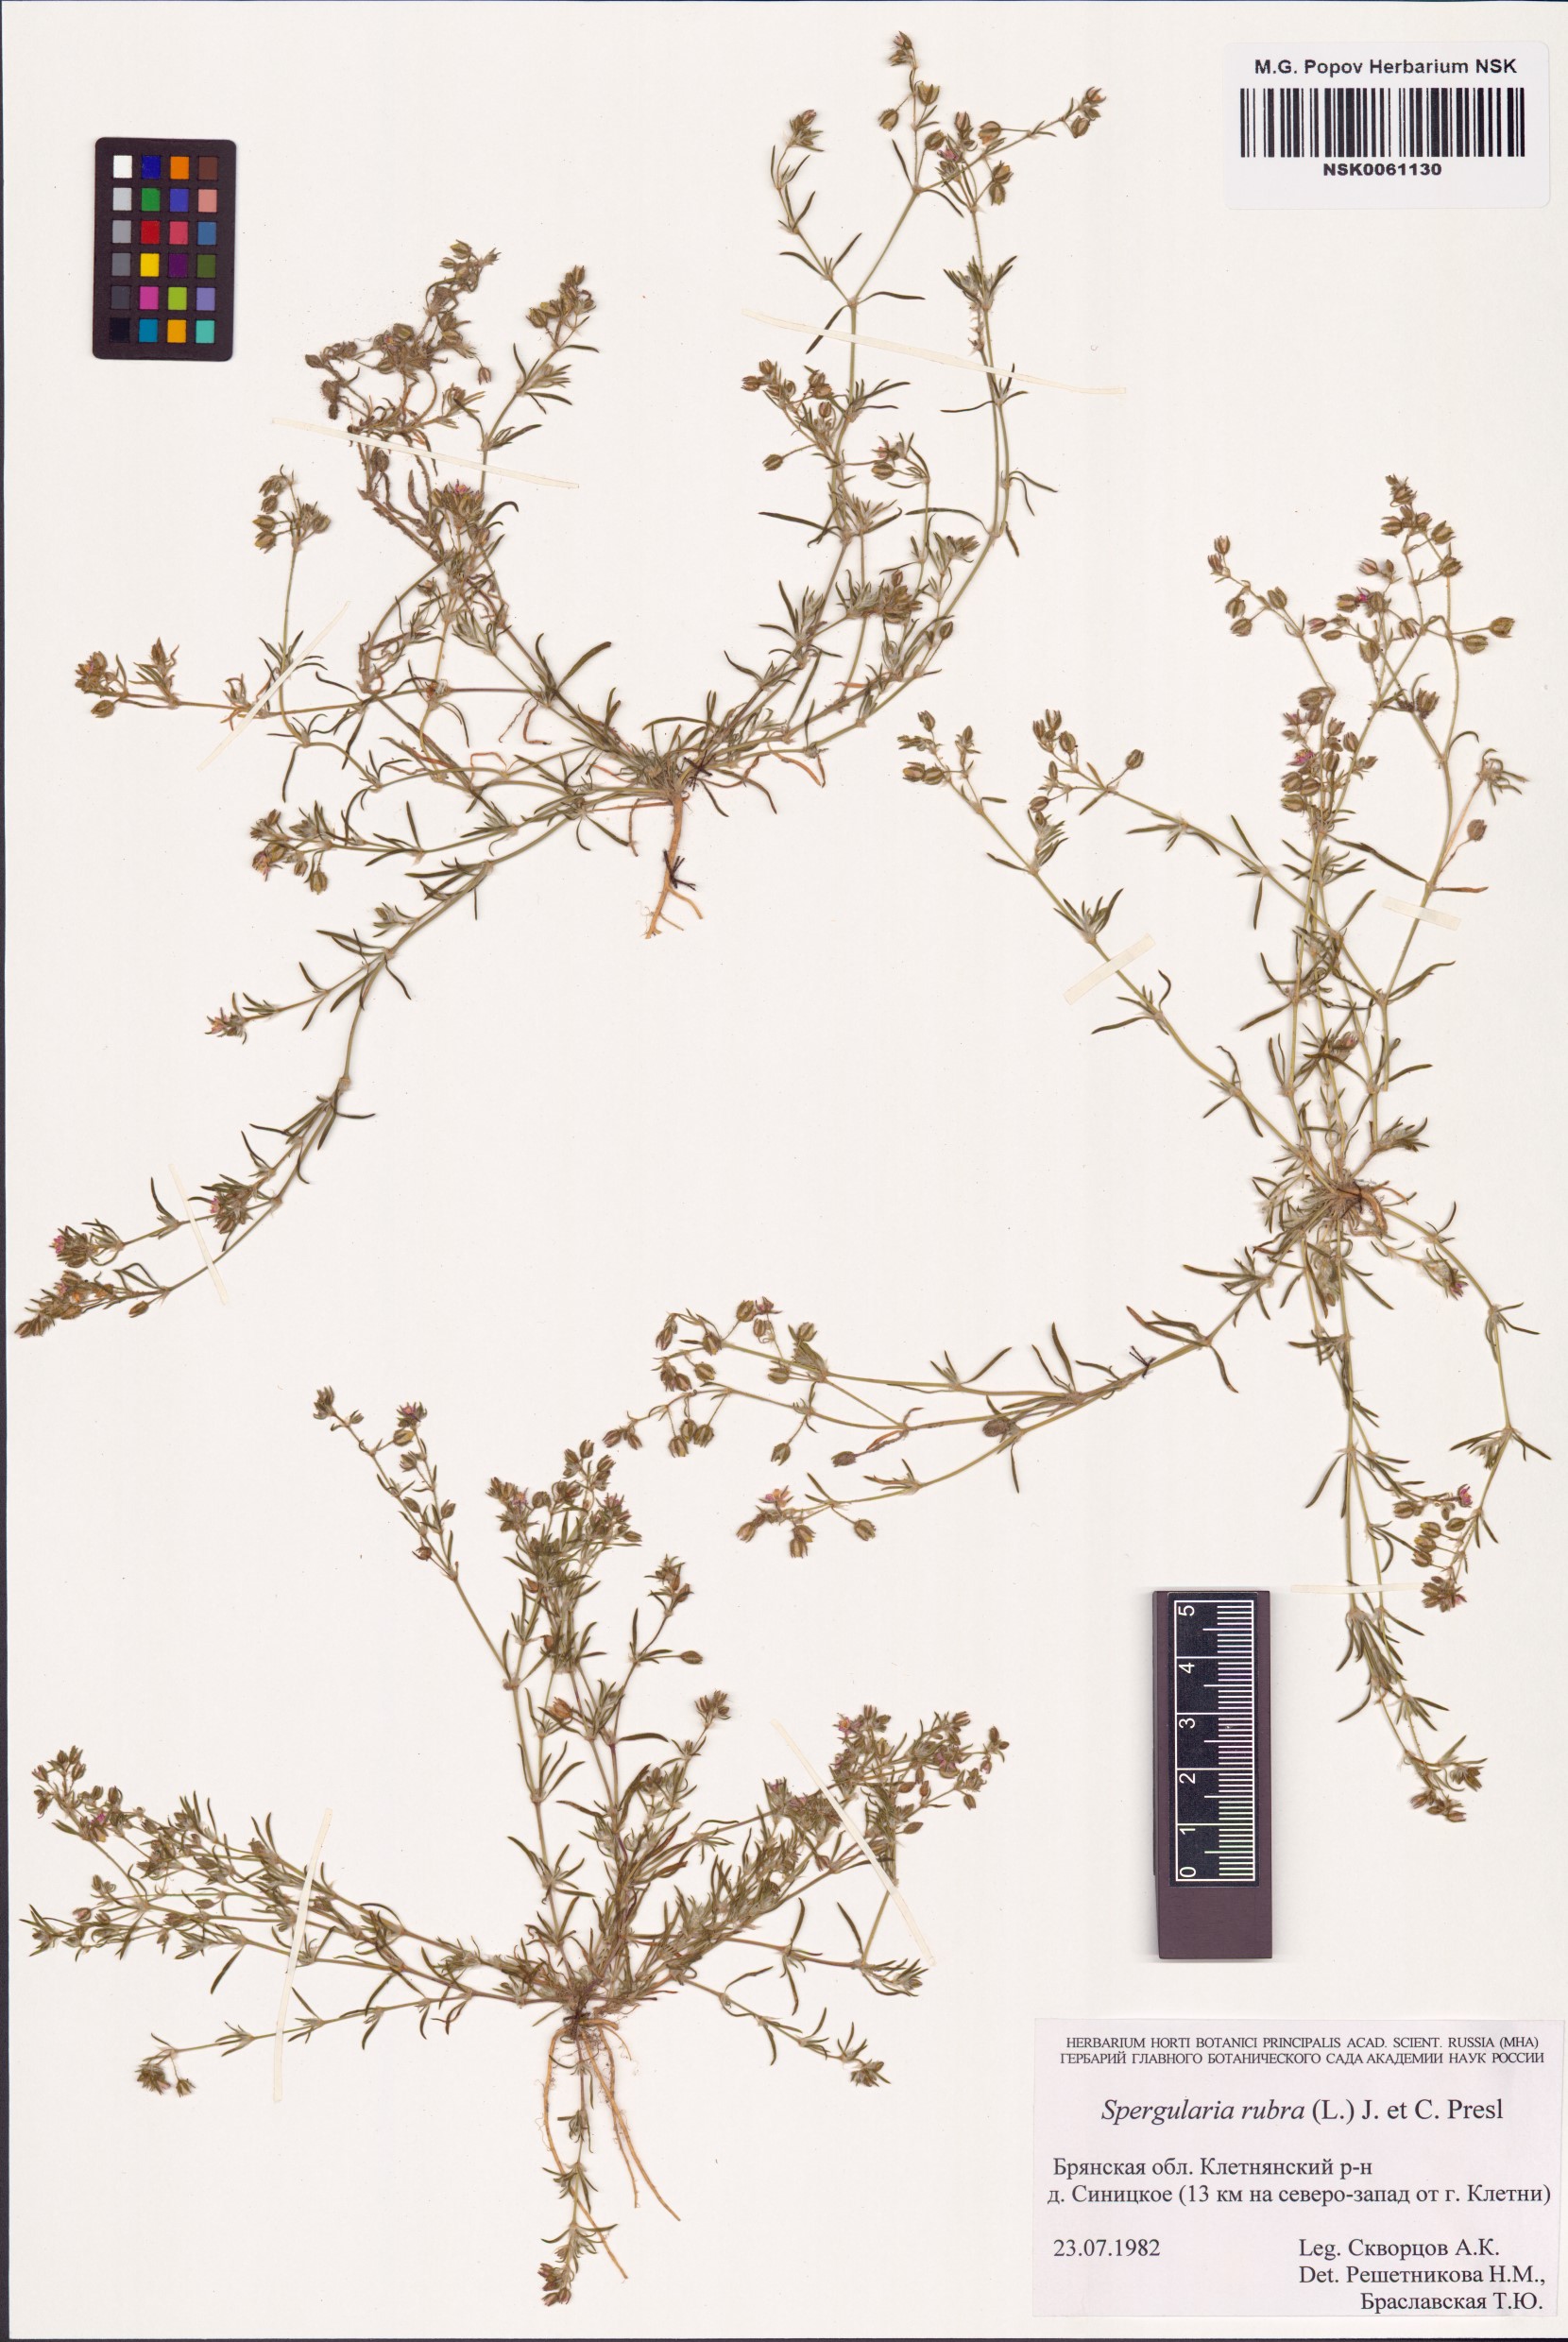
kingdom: Plantae
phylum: Tracheophyta
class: Magnoliopsida
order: Caryophyllales
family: Caryophyllaceae
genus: Spergularia
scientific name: Spergularia rubra
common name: Red sand-spurrey
